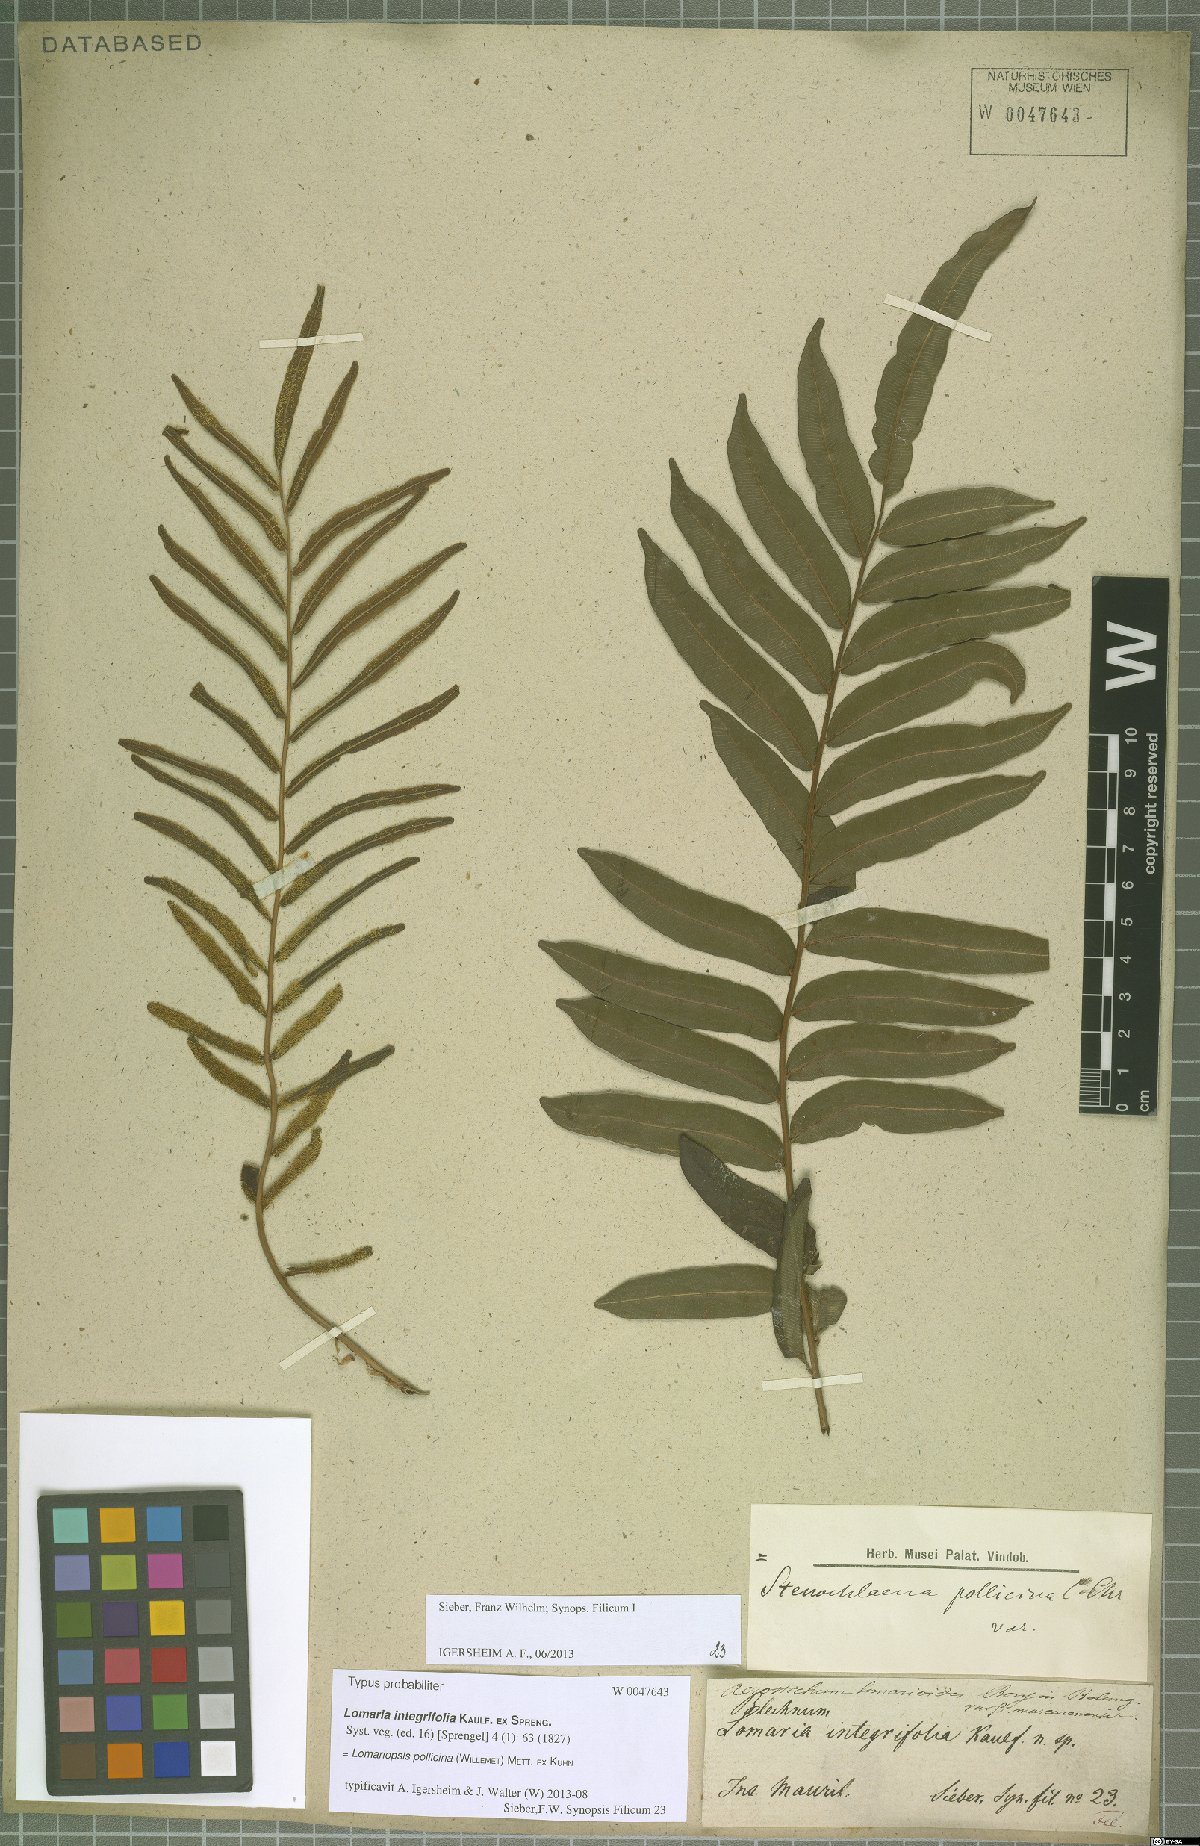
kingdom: Plantae
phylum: Tracheophyta
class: Polypodiopsida
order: Polypodiales
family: Lomariopsidaceae
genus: Lomariopsis
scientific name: Lomariopsis pollicina
